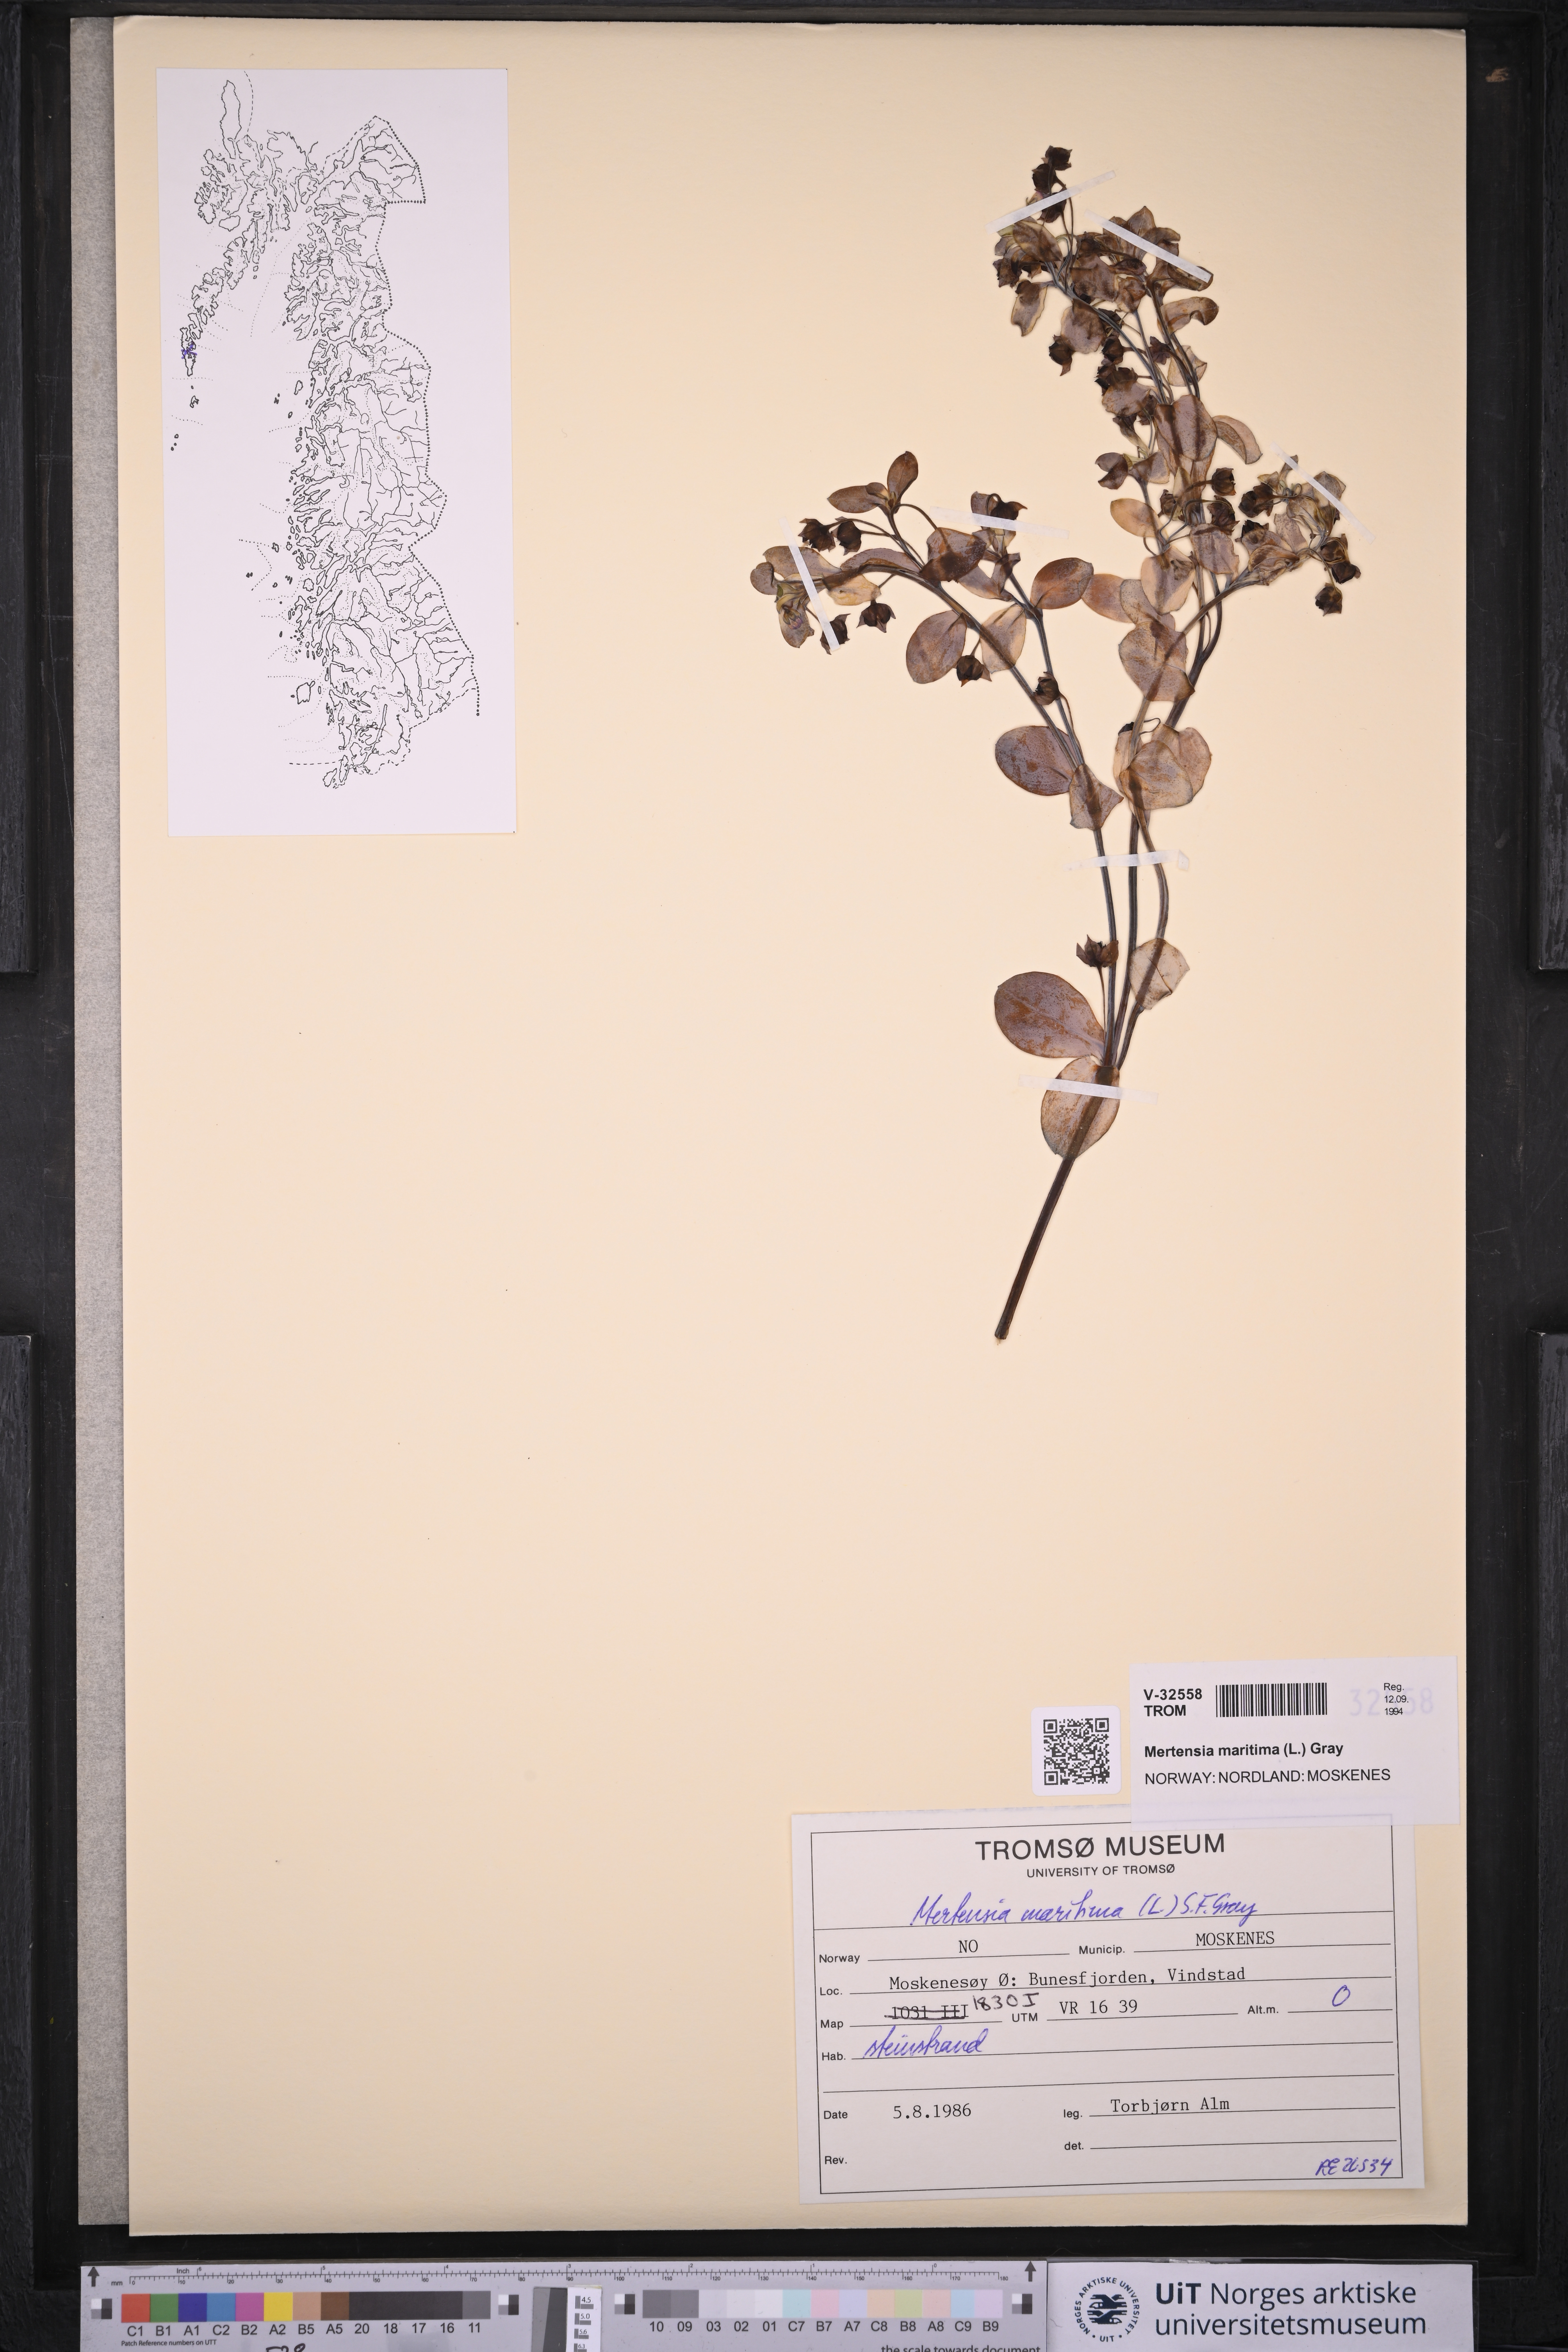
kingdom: Plantae
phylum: Tracheophyta
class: Magnoliopsida
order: Boraginales
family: Boraginaceae
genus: Mertensia
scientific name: Mertensia maritima
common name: Oysterplant
